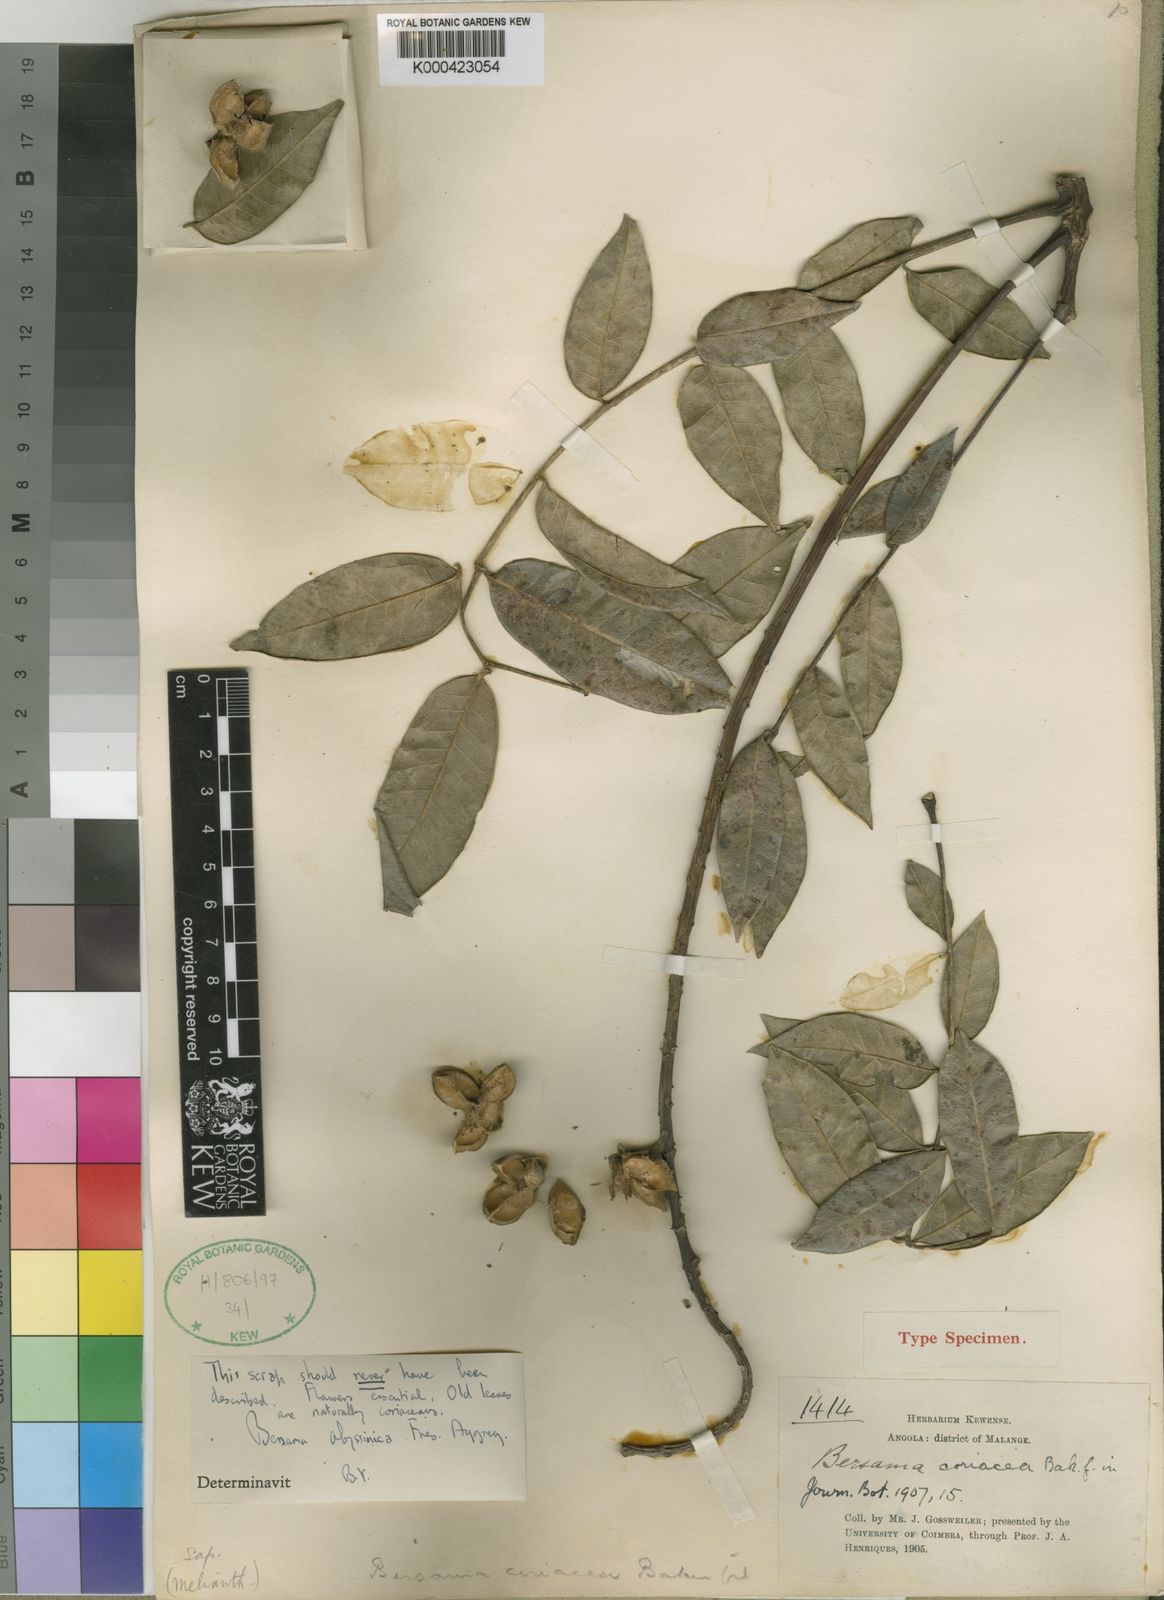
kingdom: Plantae
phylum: Tracheophyta
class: Magnoliopsida
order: Geraniales
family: Melianthaceae
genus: Bersama
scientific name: Bersama abyssinica
